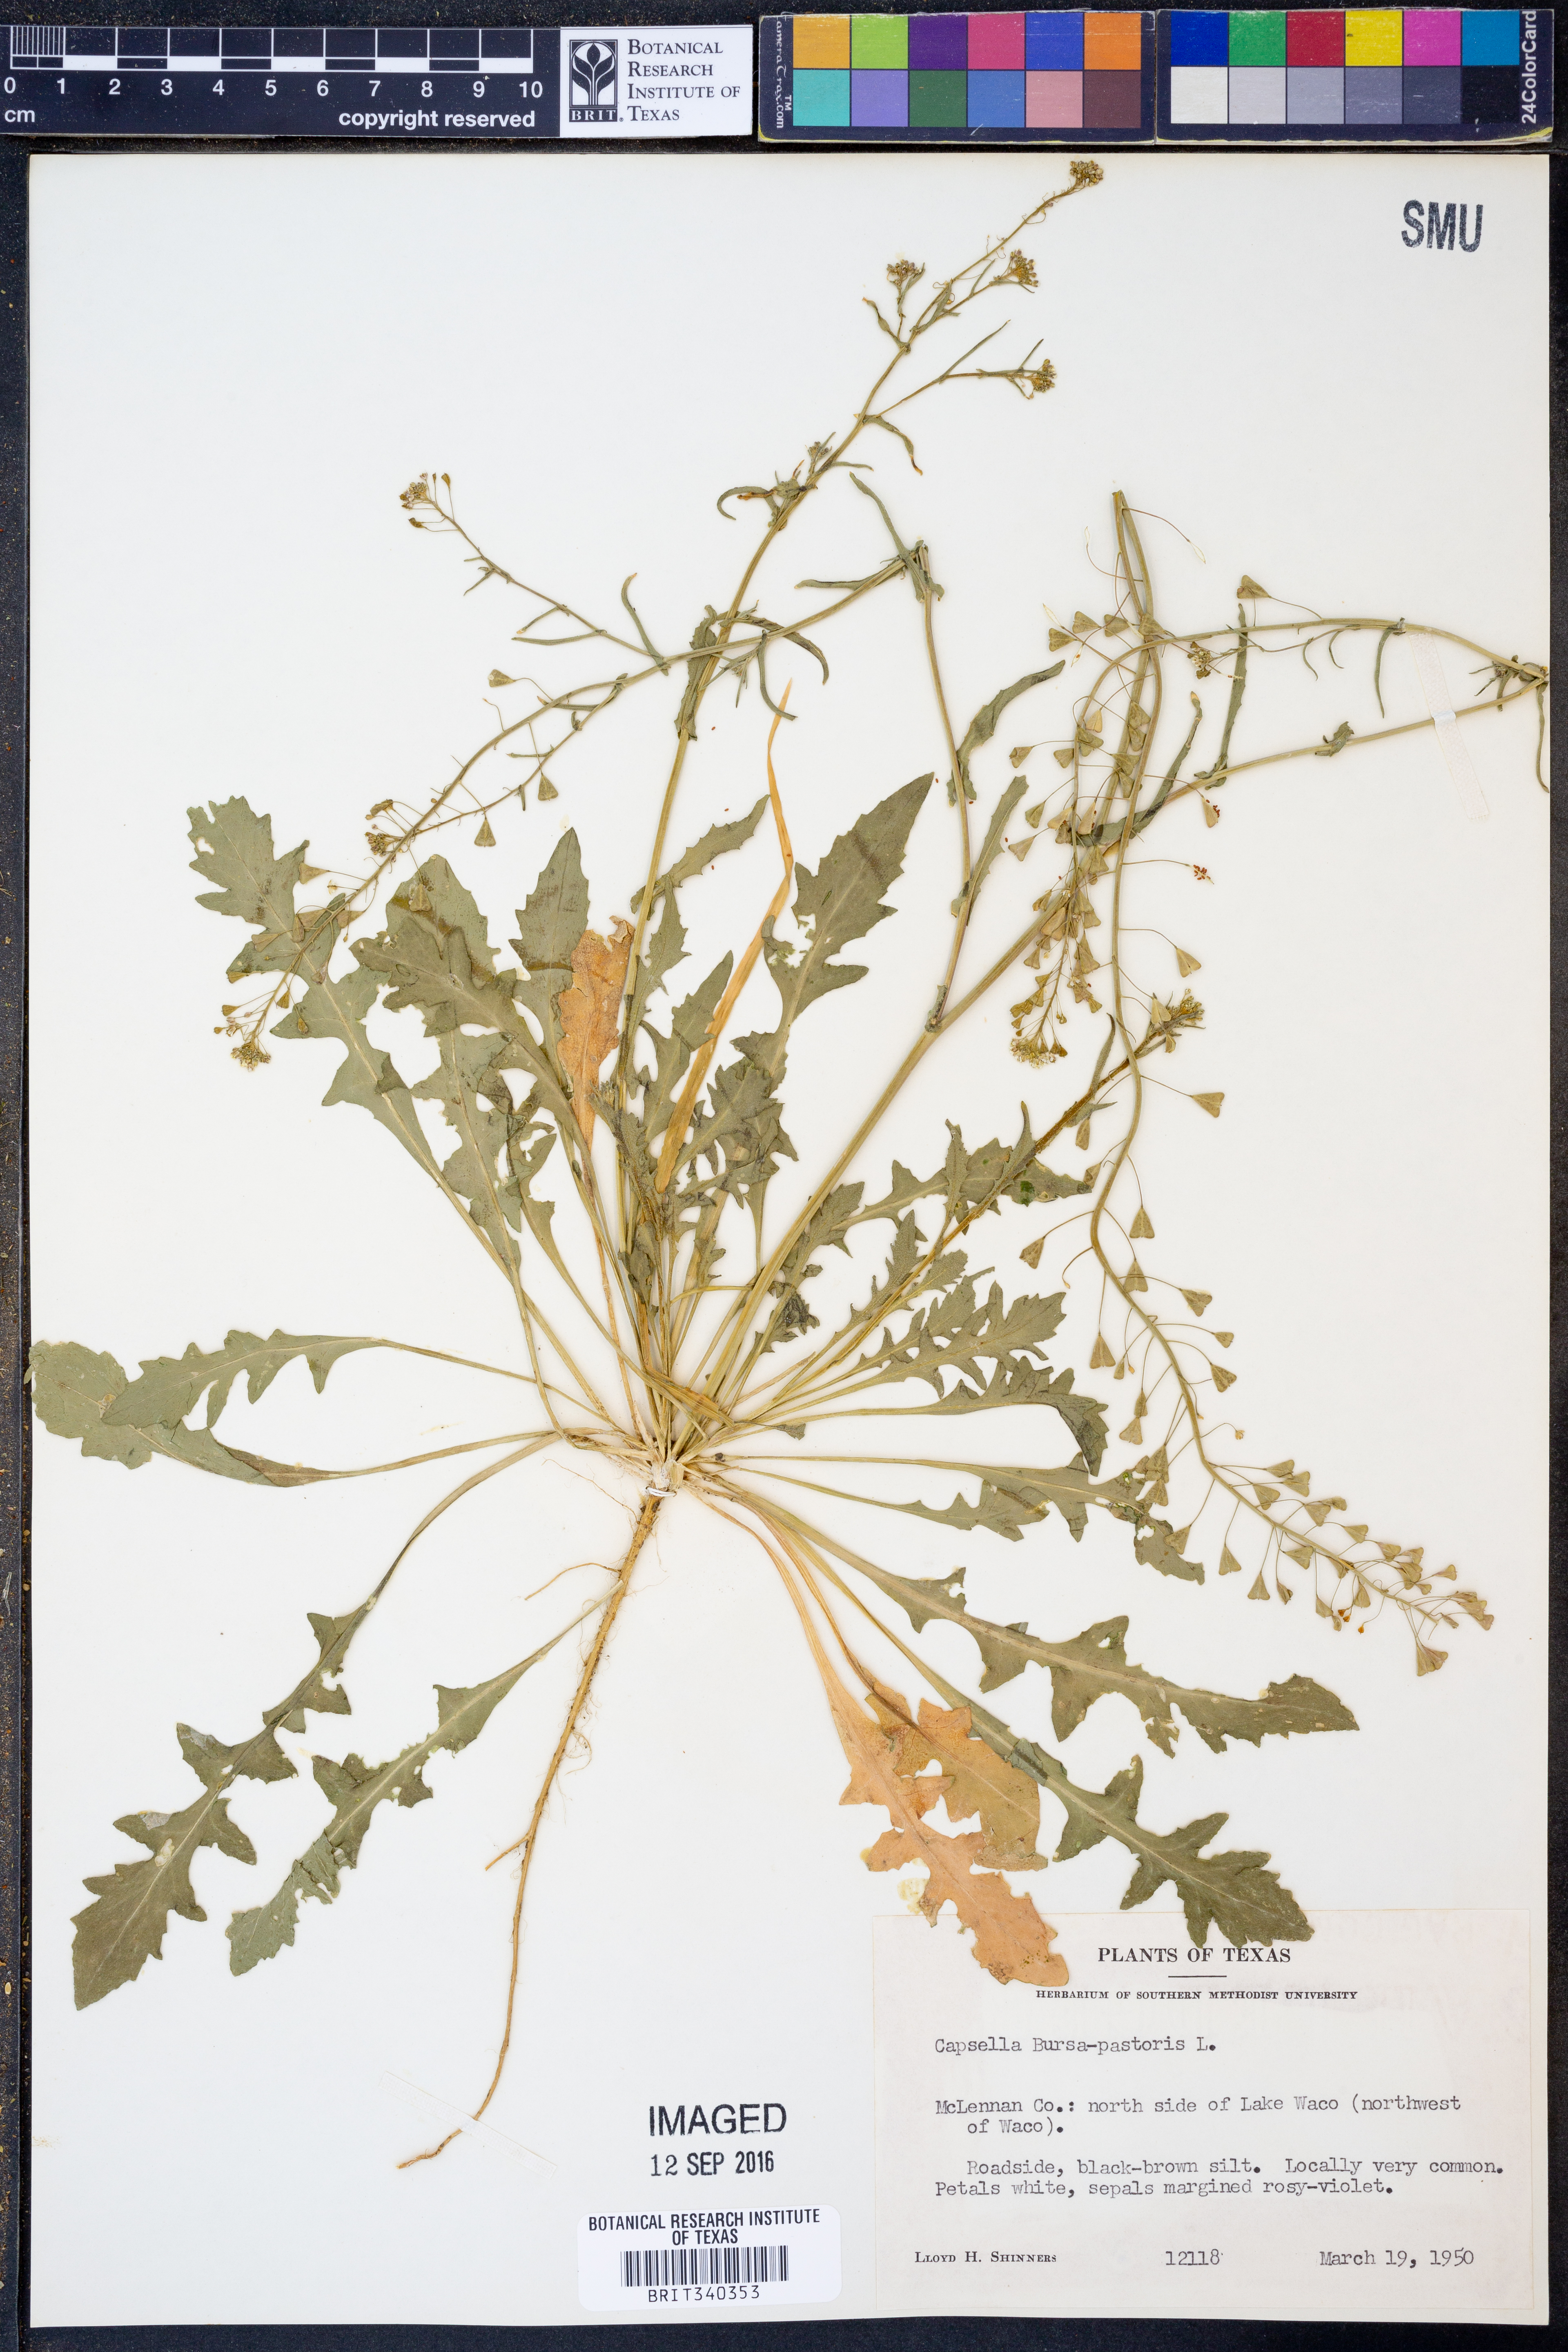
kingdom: Plantae
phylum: Tracheophyta
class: Magnoliopsida
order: Brassicales
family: Brassicaceae
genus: Capsella
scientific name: Capsella bursa-pastoris
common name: Shepherd's purse
